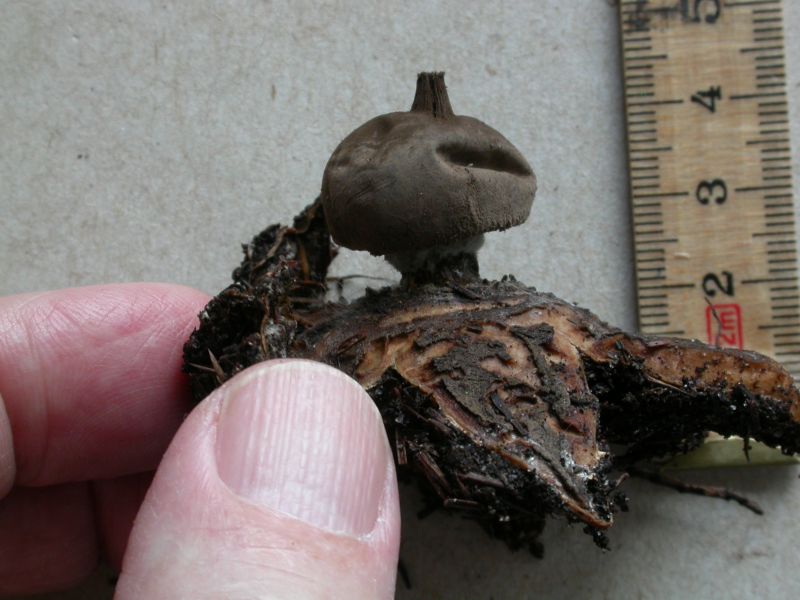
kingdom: Fungi
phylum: Basidiomycota
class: Agaricomycetes
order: Geastrales
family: Geastraceae
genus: Geastrum
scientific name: Geastrum pectinatum
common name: stilket stjernebold
